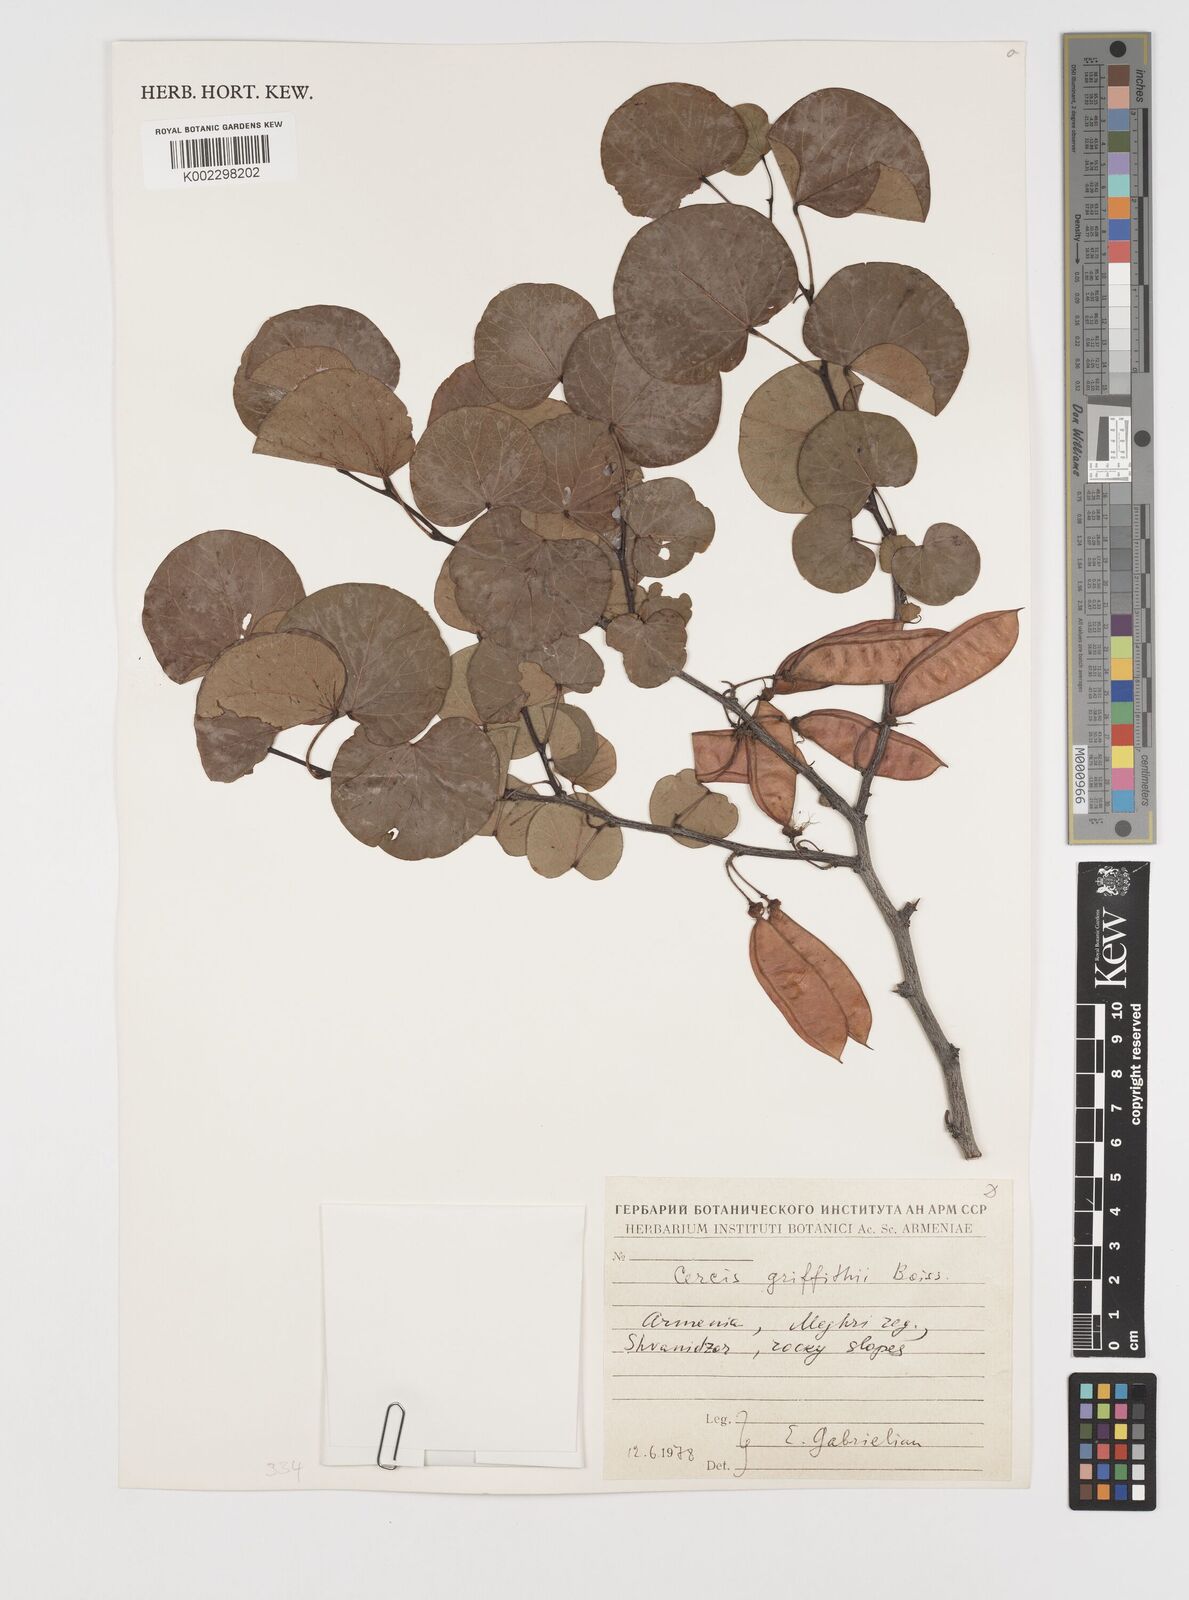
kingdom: Plantae
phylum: Tracheophyta
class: Magnoliopsida
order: Fabales
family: Fabaceae
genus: Cercis
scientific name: Cercis griffithii
